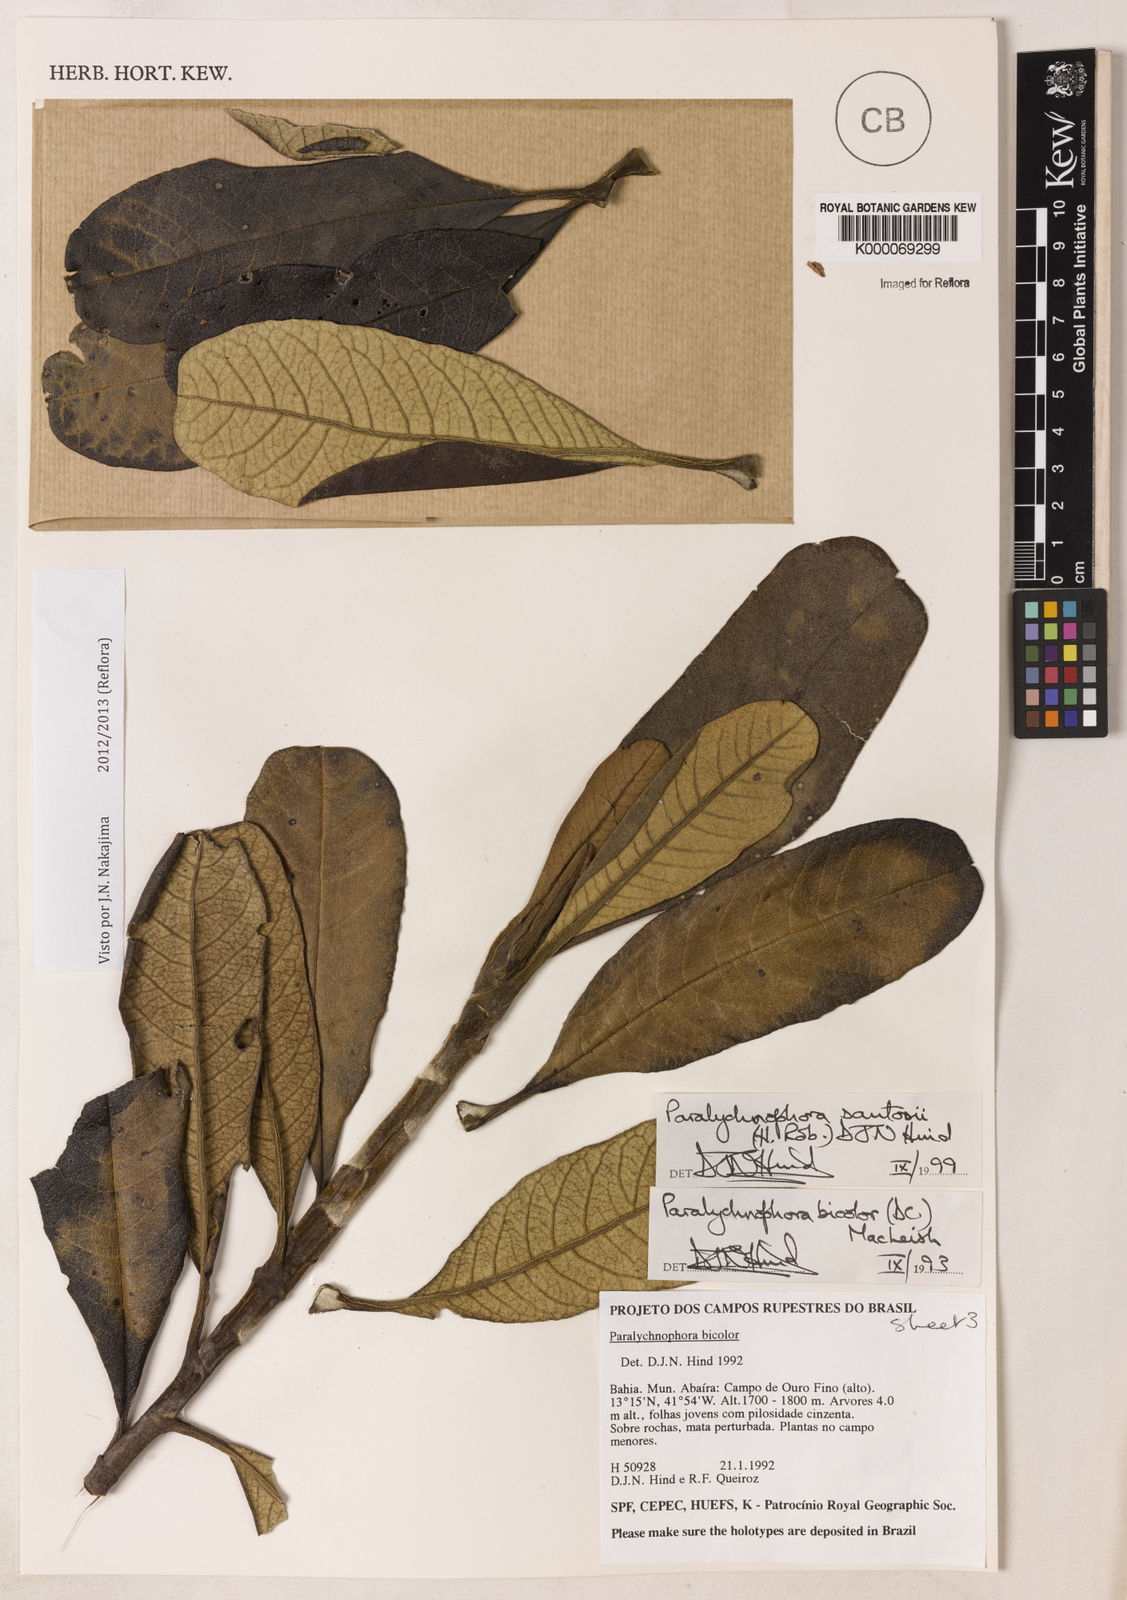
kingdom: Plantae
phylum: Tracheophyta
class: Magnoliopsida
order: Asterales
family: Asteraceae
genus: Paralychnophora
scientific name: Paralychnophora santosii
